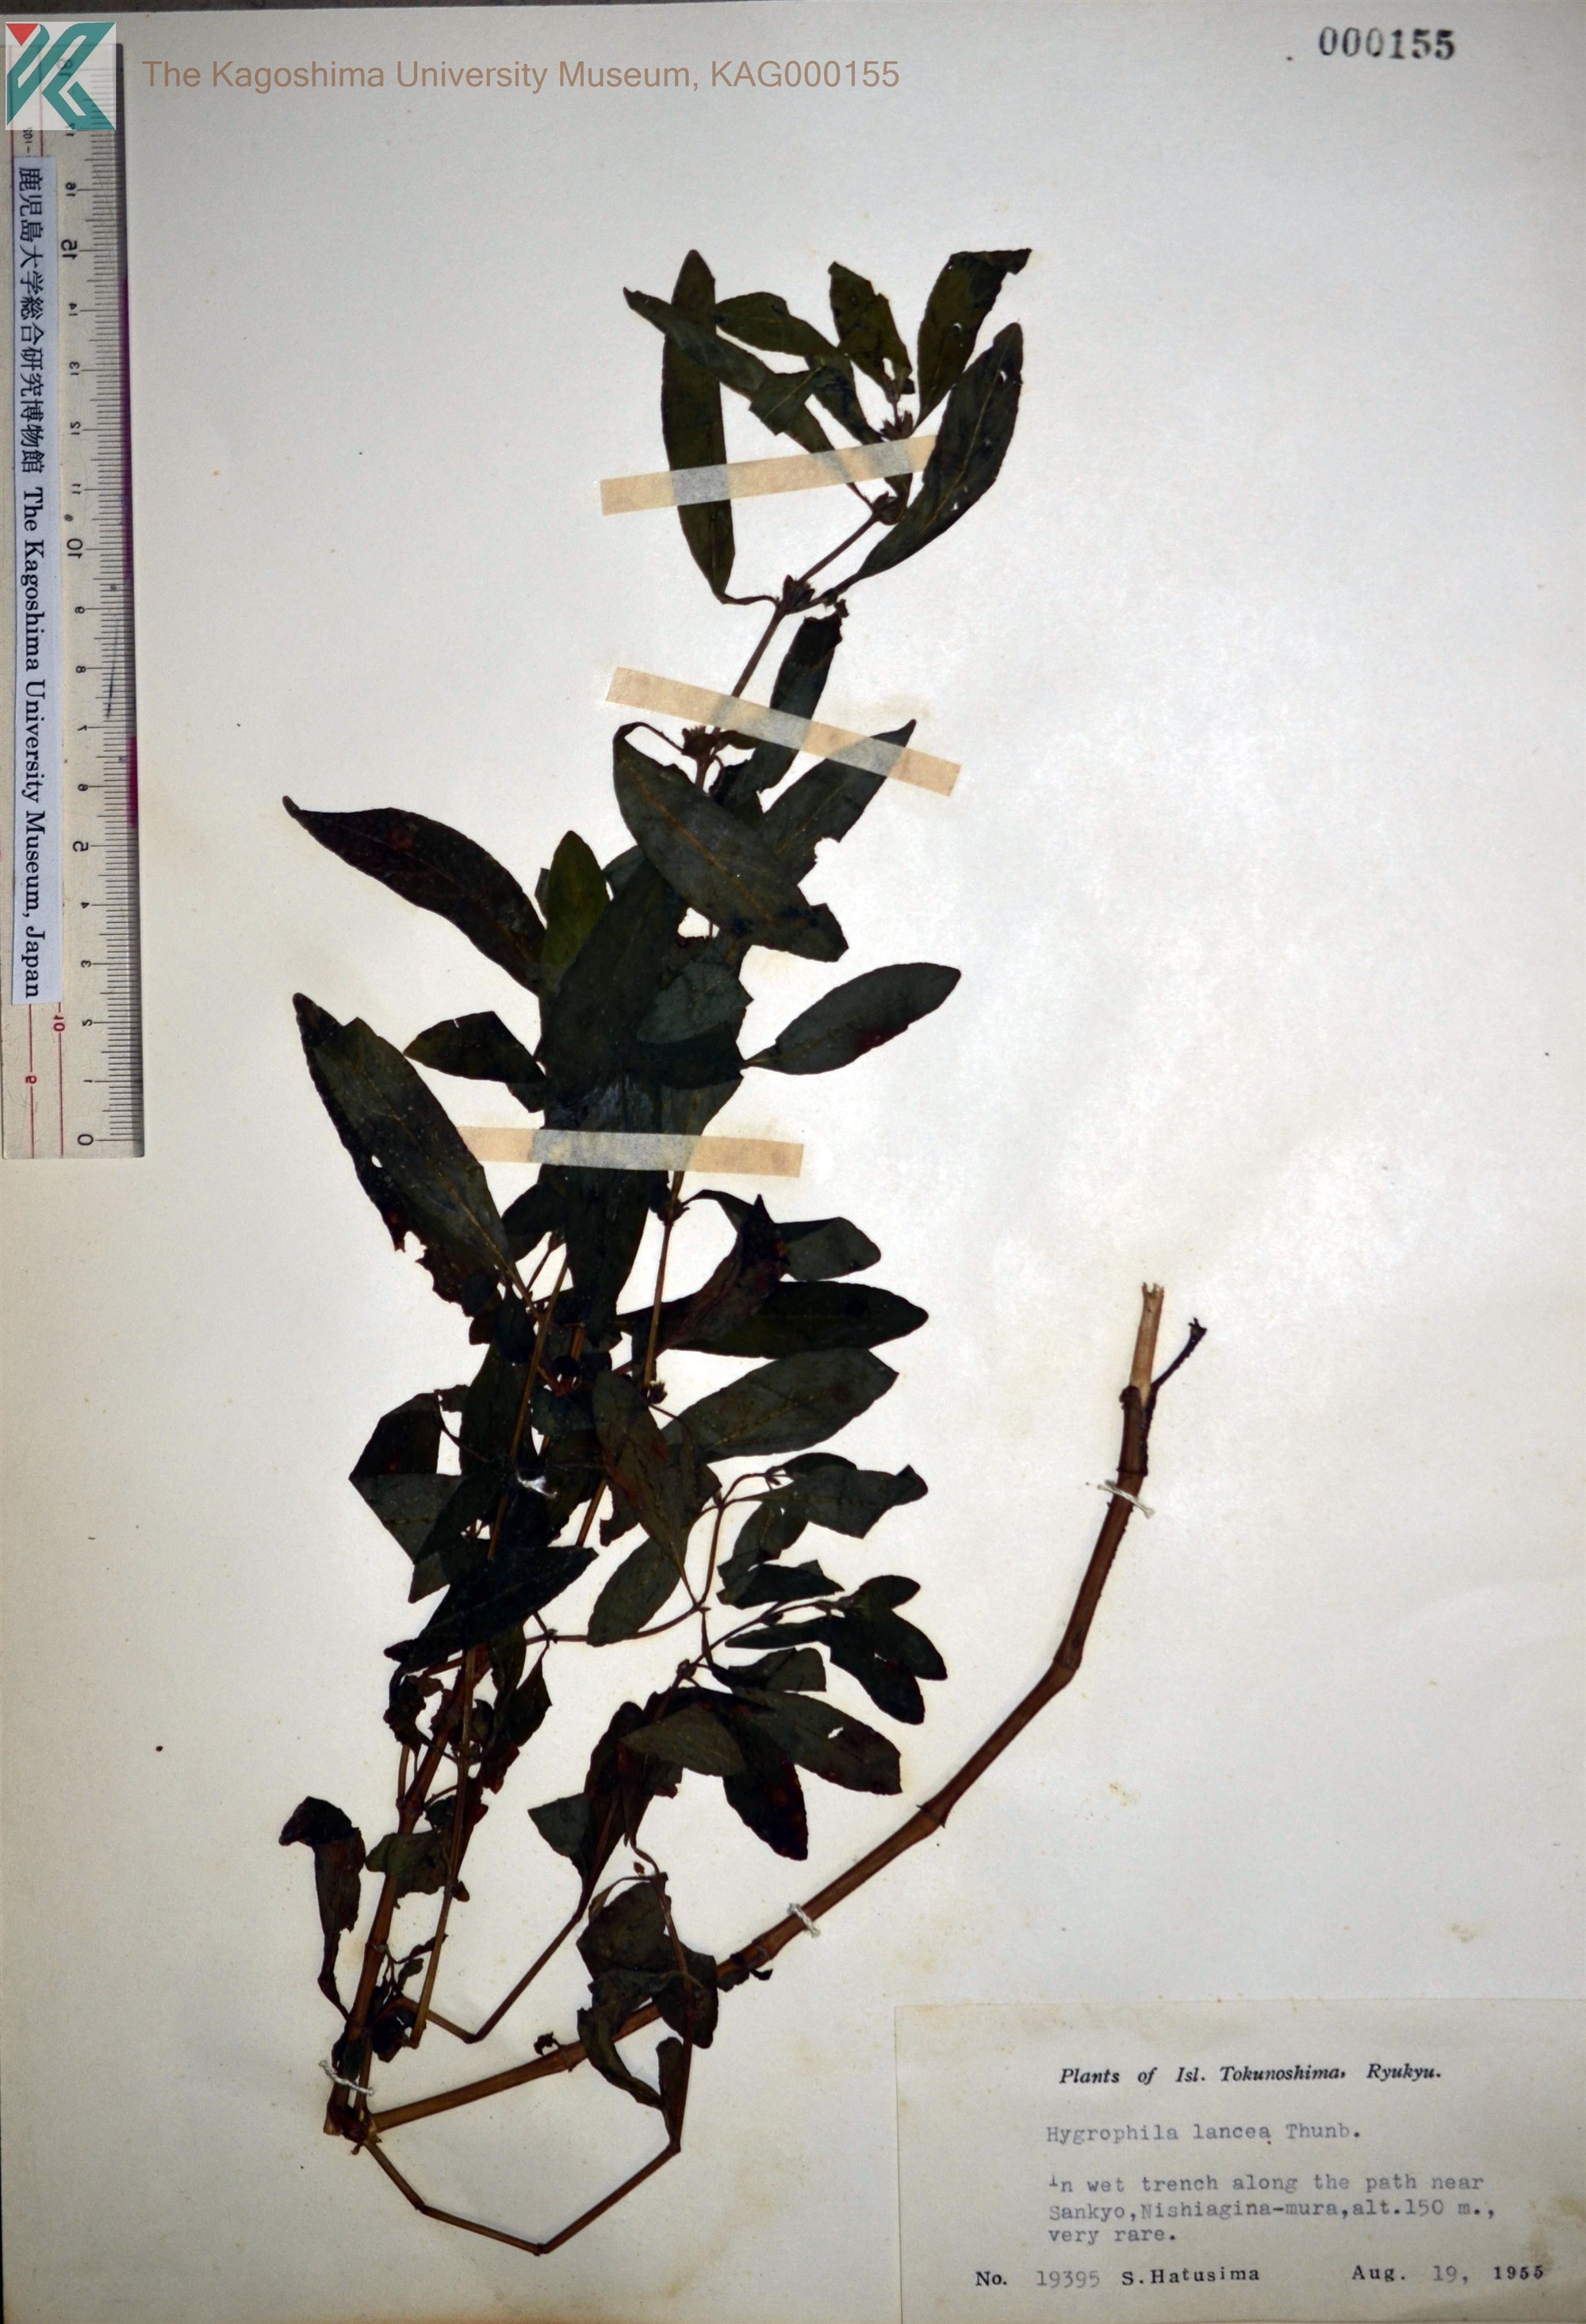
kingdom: Plantae
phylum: Tracheophyta
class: Magnoliopsida
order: Lamiales
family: Acanthaceae
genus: Hygrophila
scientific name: Hygrophila ringens
